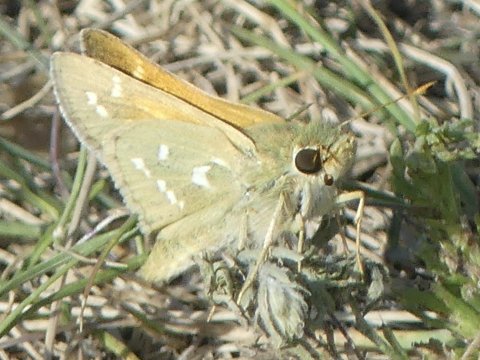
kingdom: Animalia
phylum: Arthropoda
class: Insecta
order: Lepidoptera
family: Hesperiidae
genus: Hesperia
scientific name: Hesperia comma
